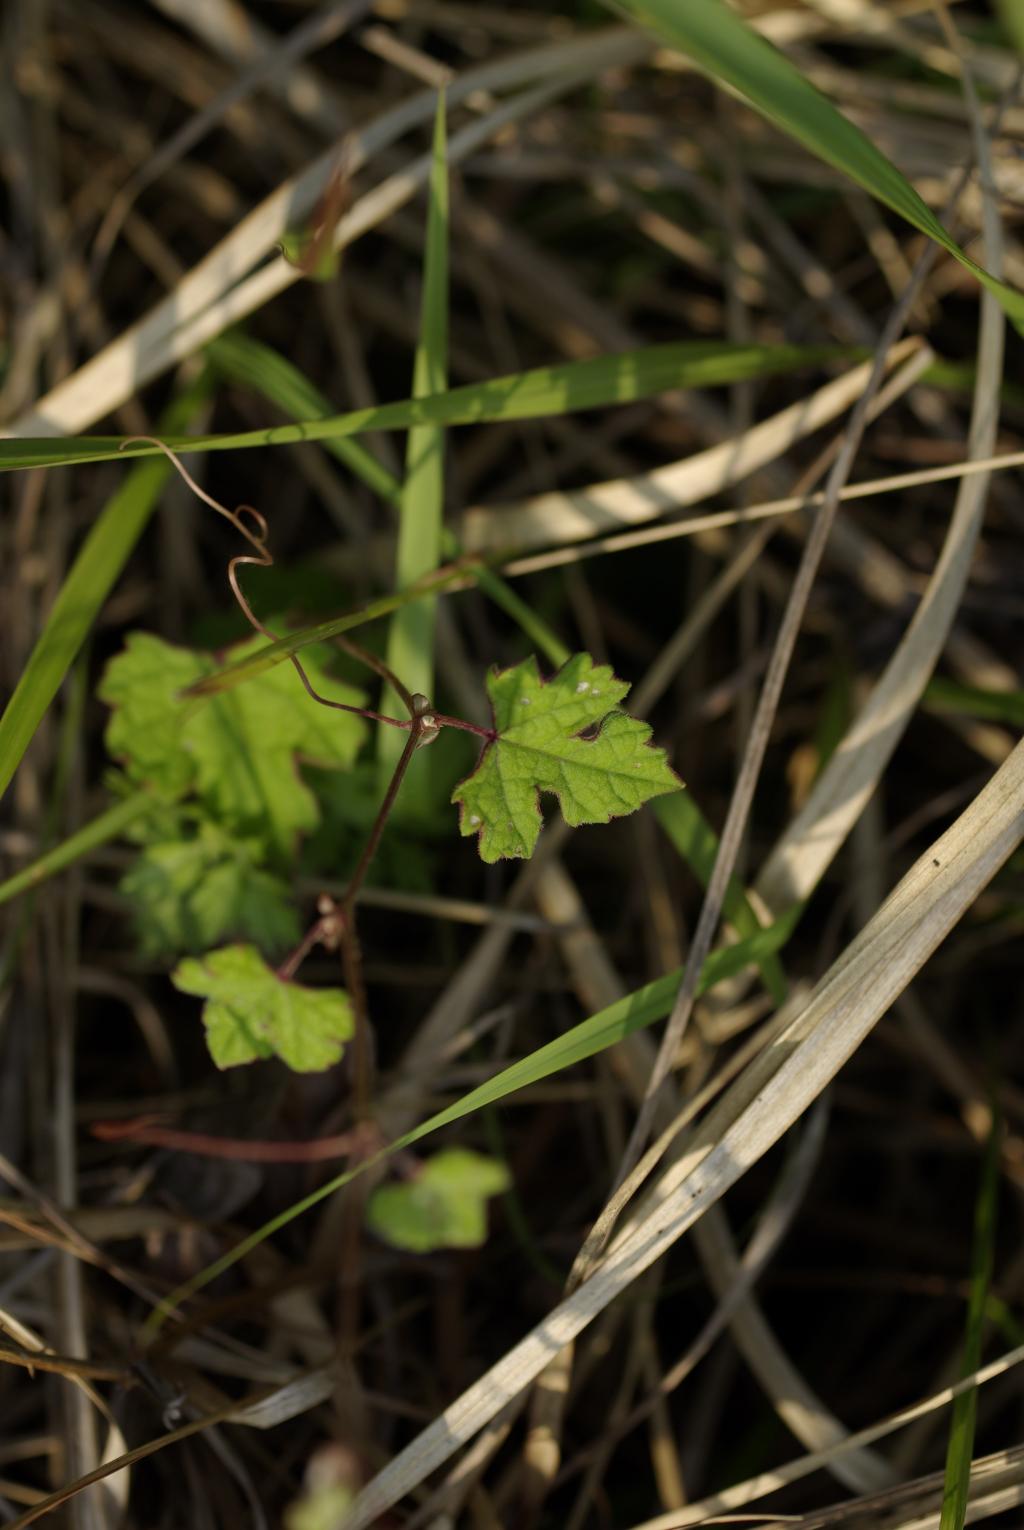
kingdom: Plantae
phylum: Tracheophyta
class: Magnoliopsida
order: Vitales
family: Vitaceae
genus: Vitis
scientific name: Vitis sinocinerea
